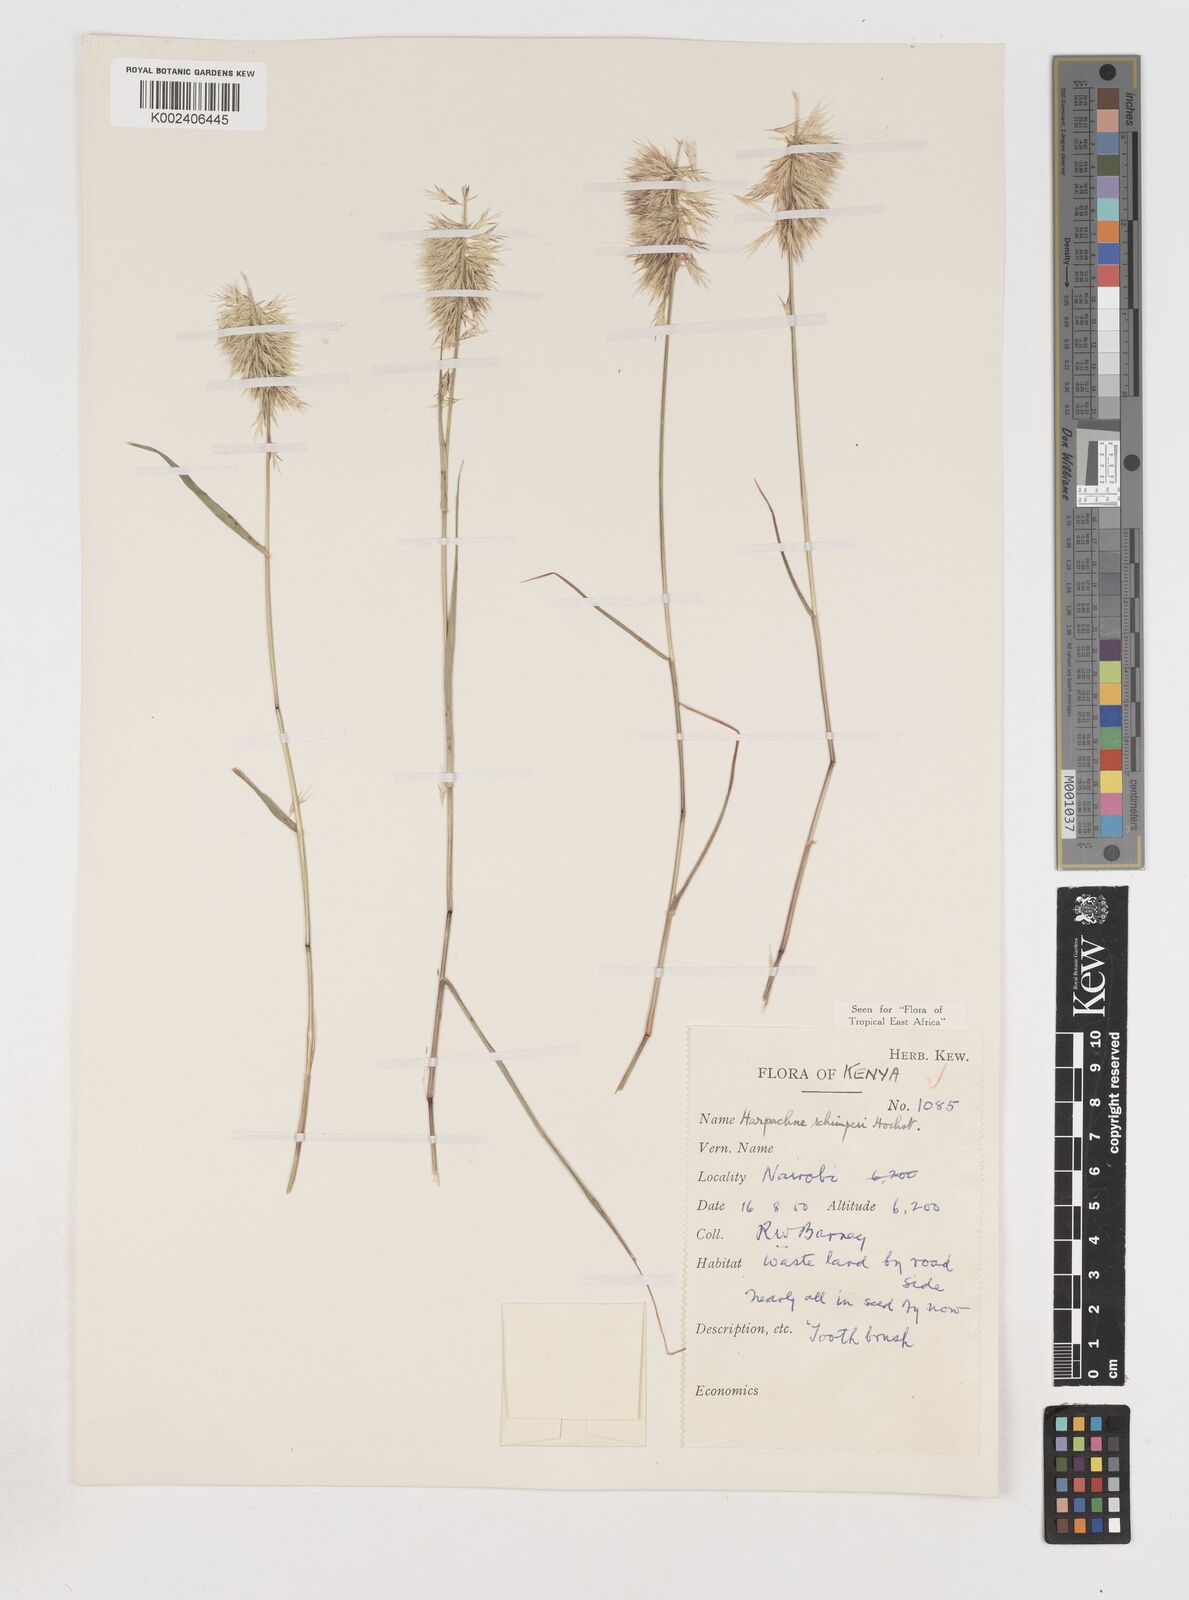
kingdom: Plantae
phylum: Tracheophyta
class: Liliopsida
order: Poales
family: Poaceae
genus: Harpachne
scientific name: Harpachne schimperi
